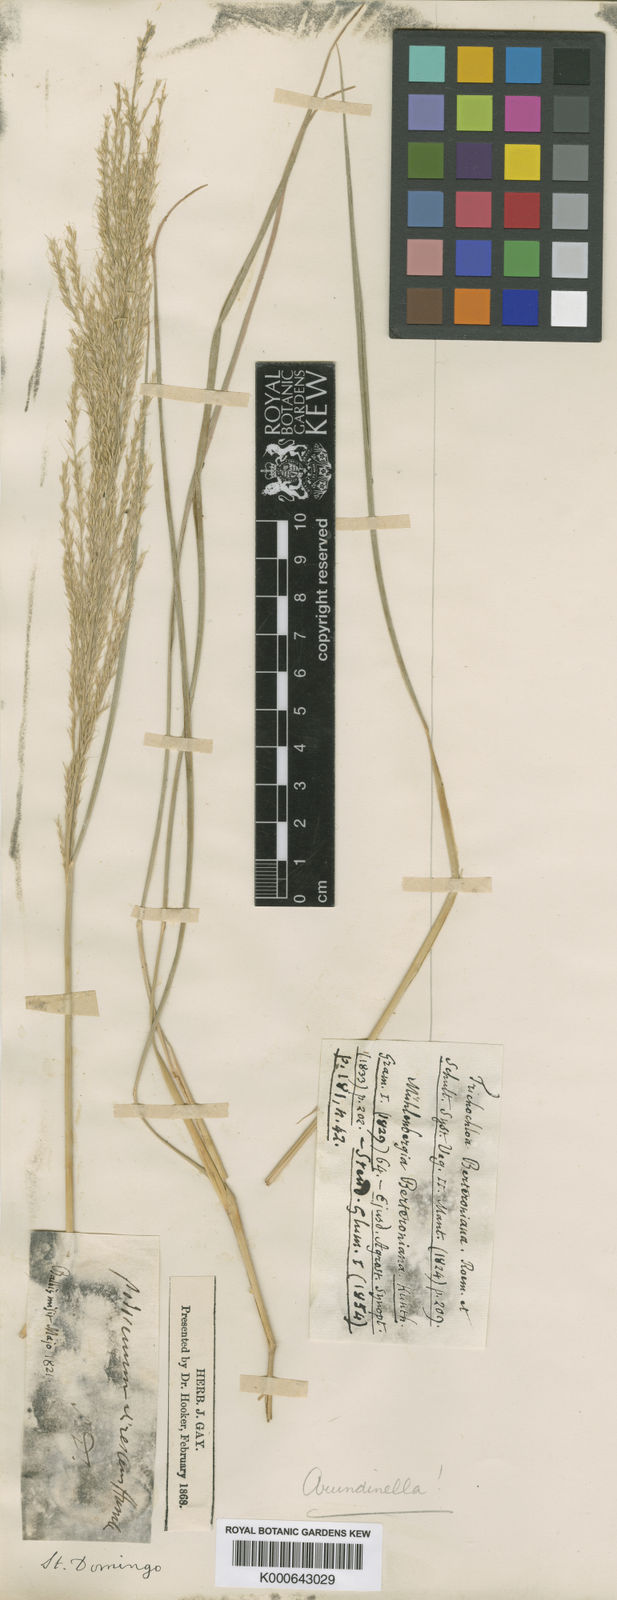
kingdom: Plantae
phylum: Tracheophyta
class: Liliopsida
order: Poales
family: Poaceae
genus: Arundinella
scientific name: Arundinella berteroniana
